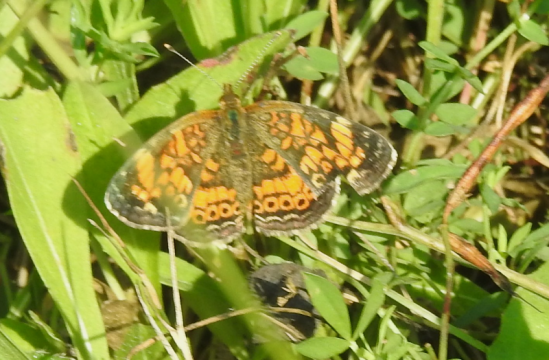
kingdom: Animalia
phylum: Arthropoda
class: Insecta
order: Lepidoptera
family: Nymphalidae
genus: Phyciodes
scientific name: Phyciodes tharos
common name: Northern Crescent
